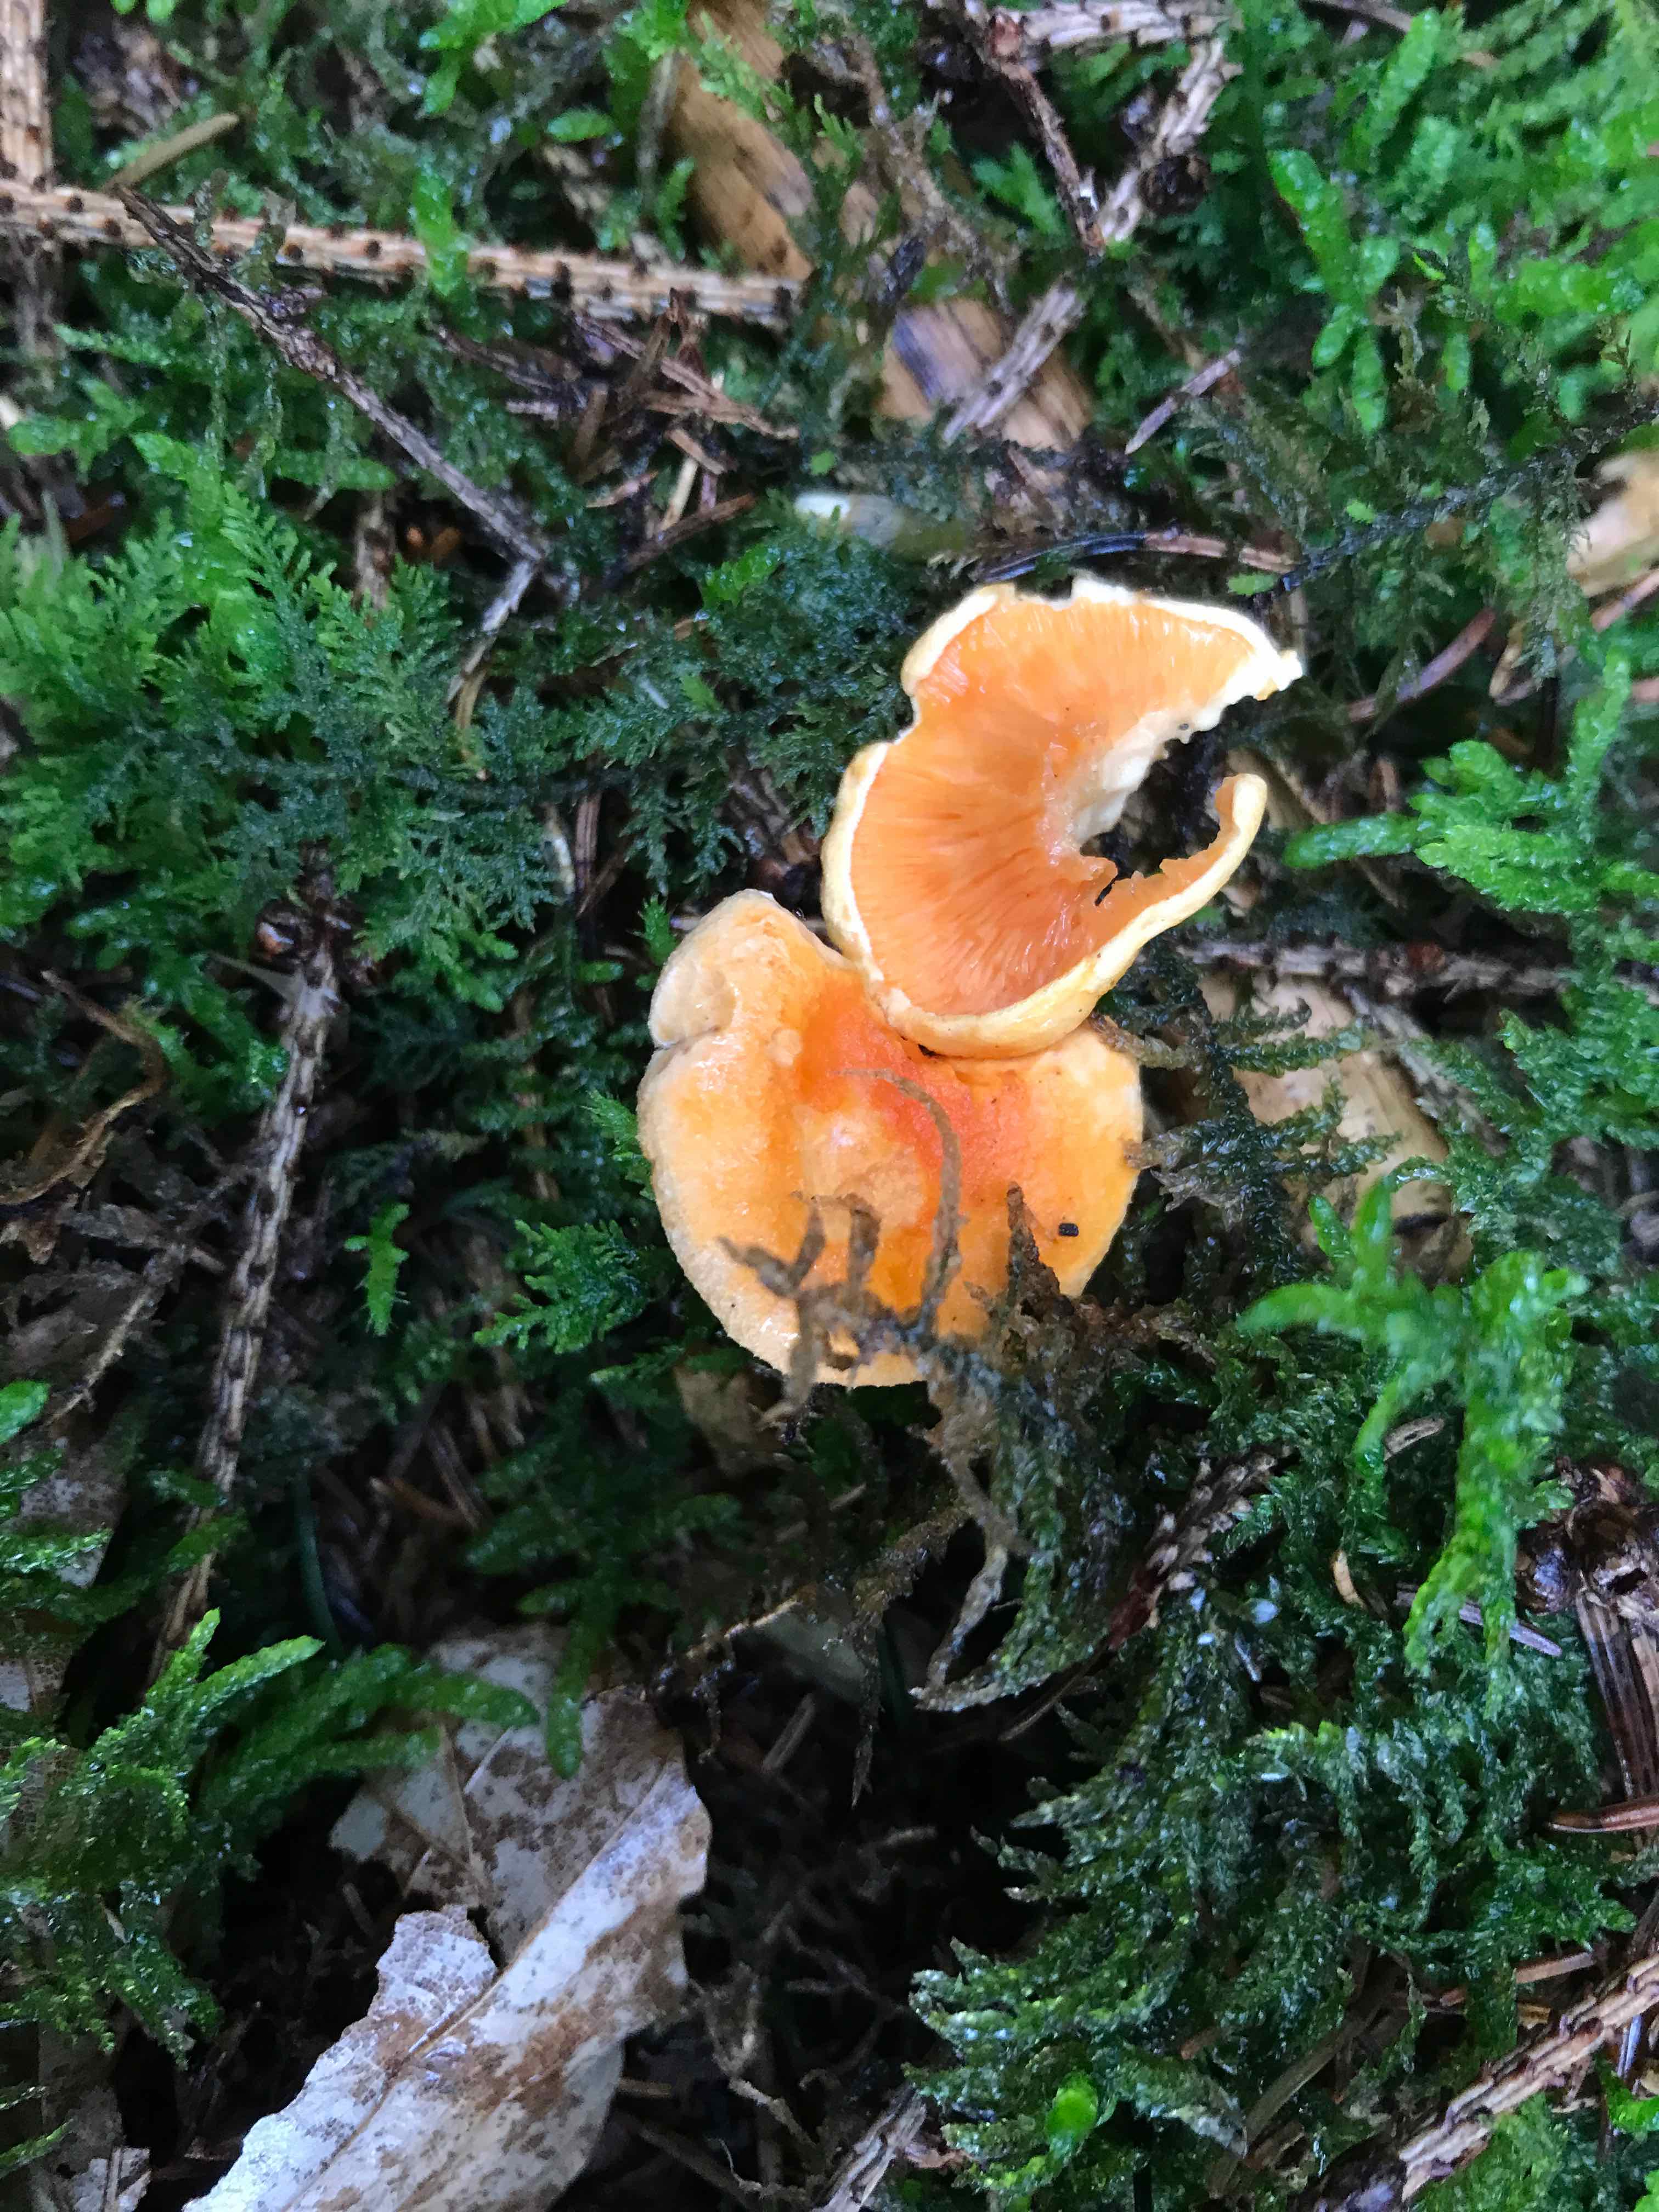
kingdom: Fungi
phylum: Basidiomycota
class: Agaricomycetes
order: Boletales
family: Hygrophoropsidaceae
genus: Hygrophoropsis
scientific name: Hygrophoropsis aurantiaca
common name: almindelig orangekantarel
